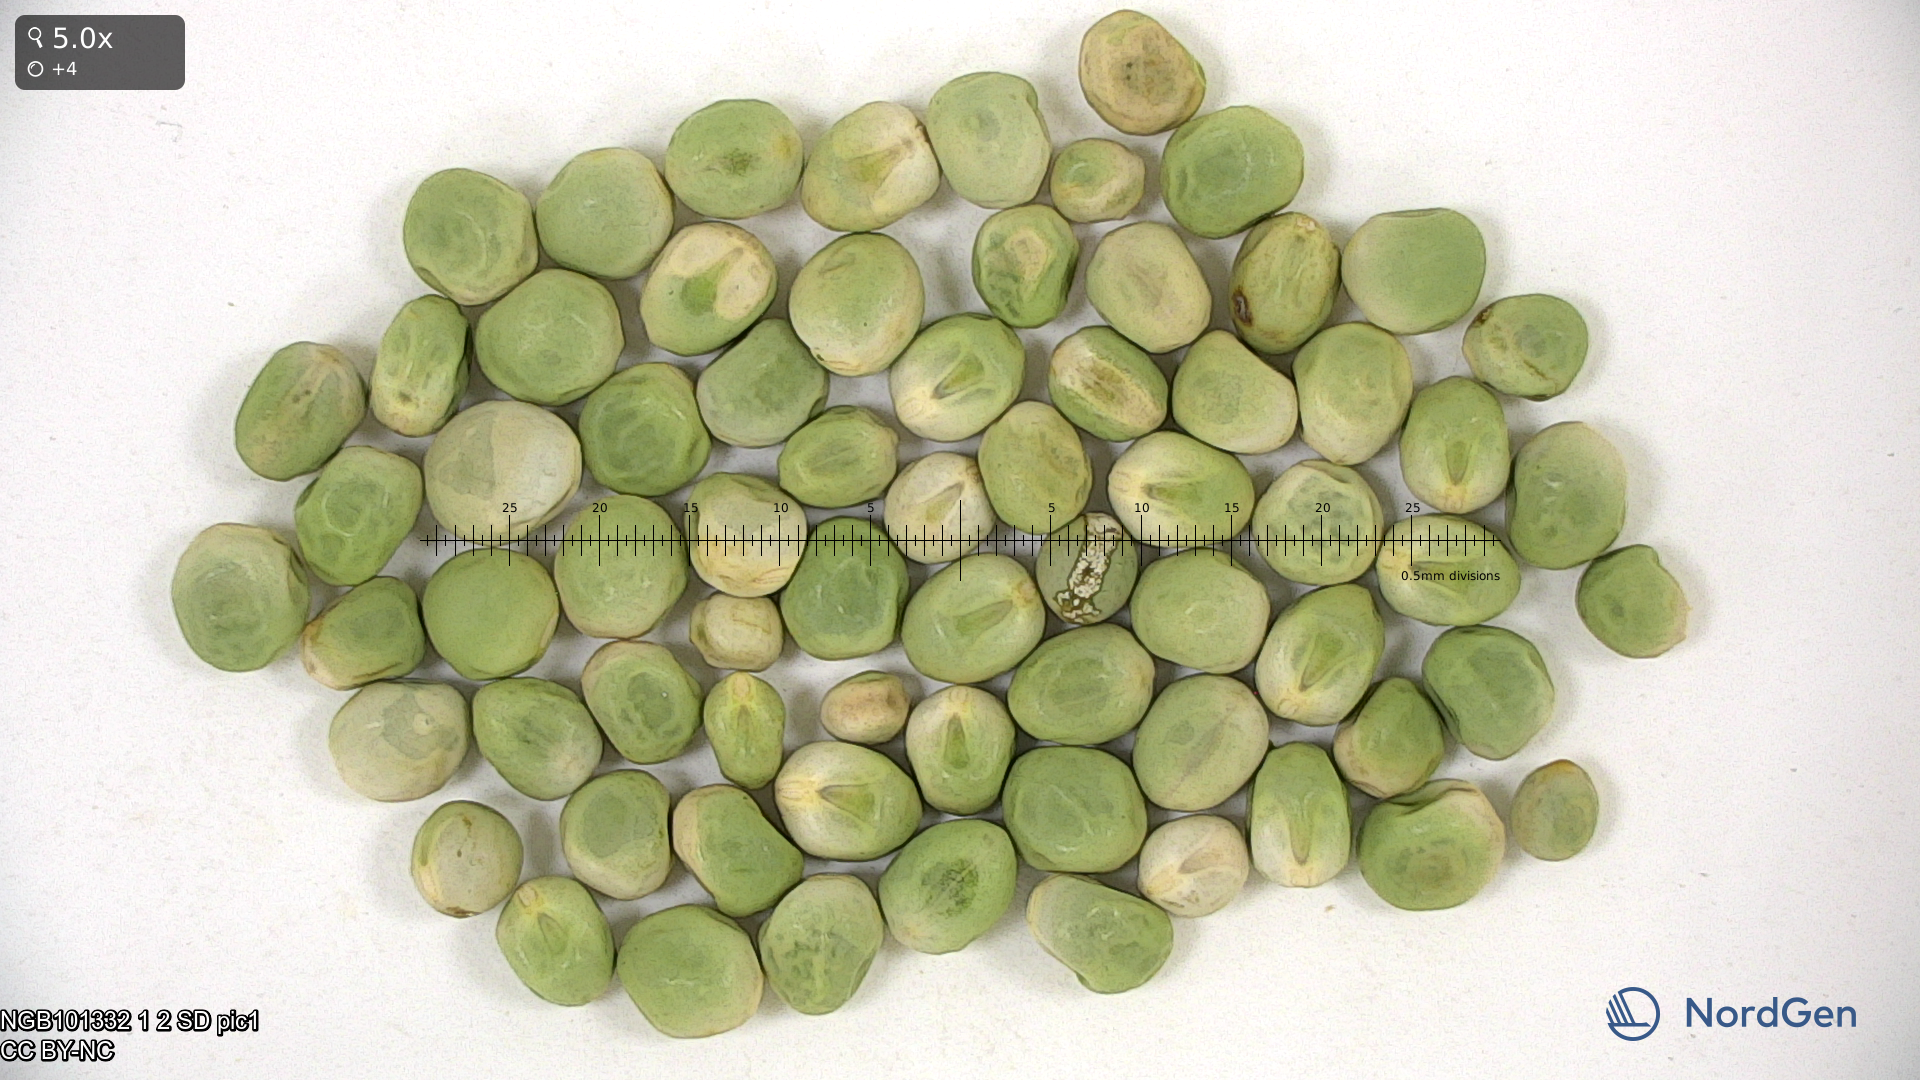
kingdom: Plantae
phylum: Tracheophyta
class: Magnoliopsida
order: Fabales
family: Fabaceae
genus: Lathyrus
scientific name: Lathyrus oleraceus
